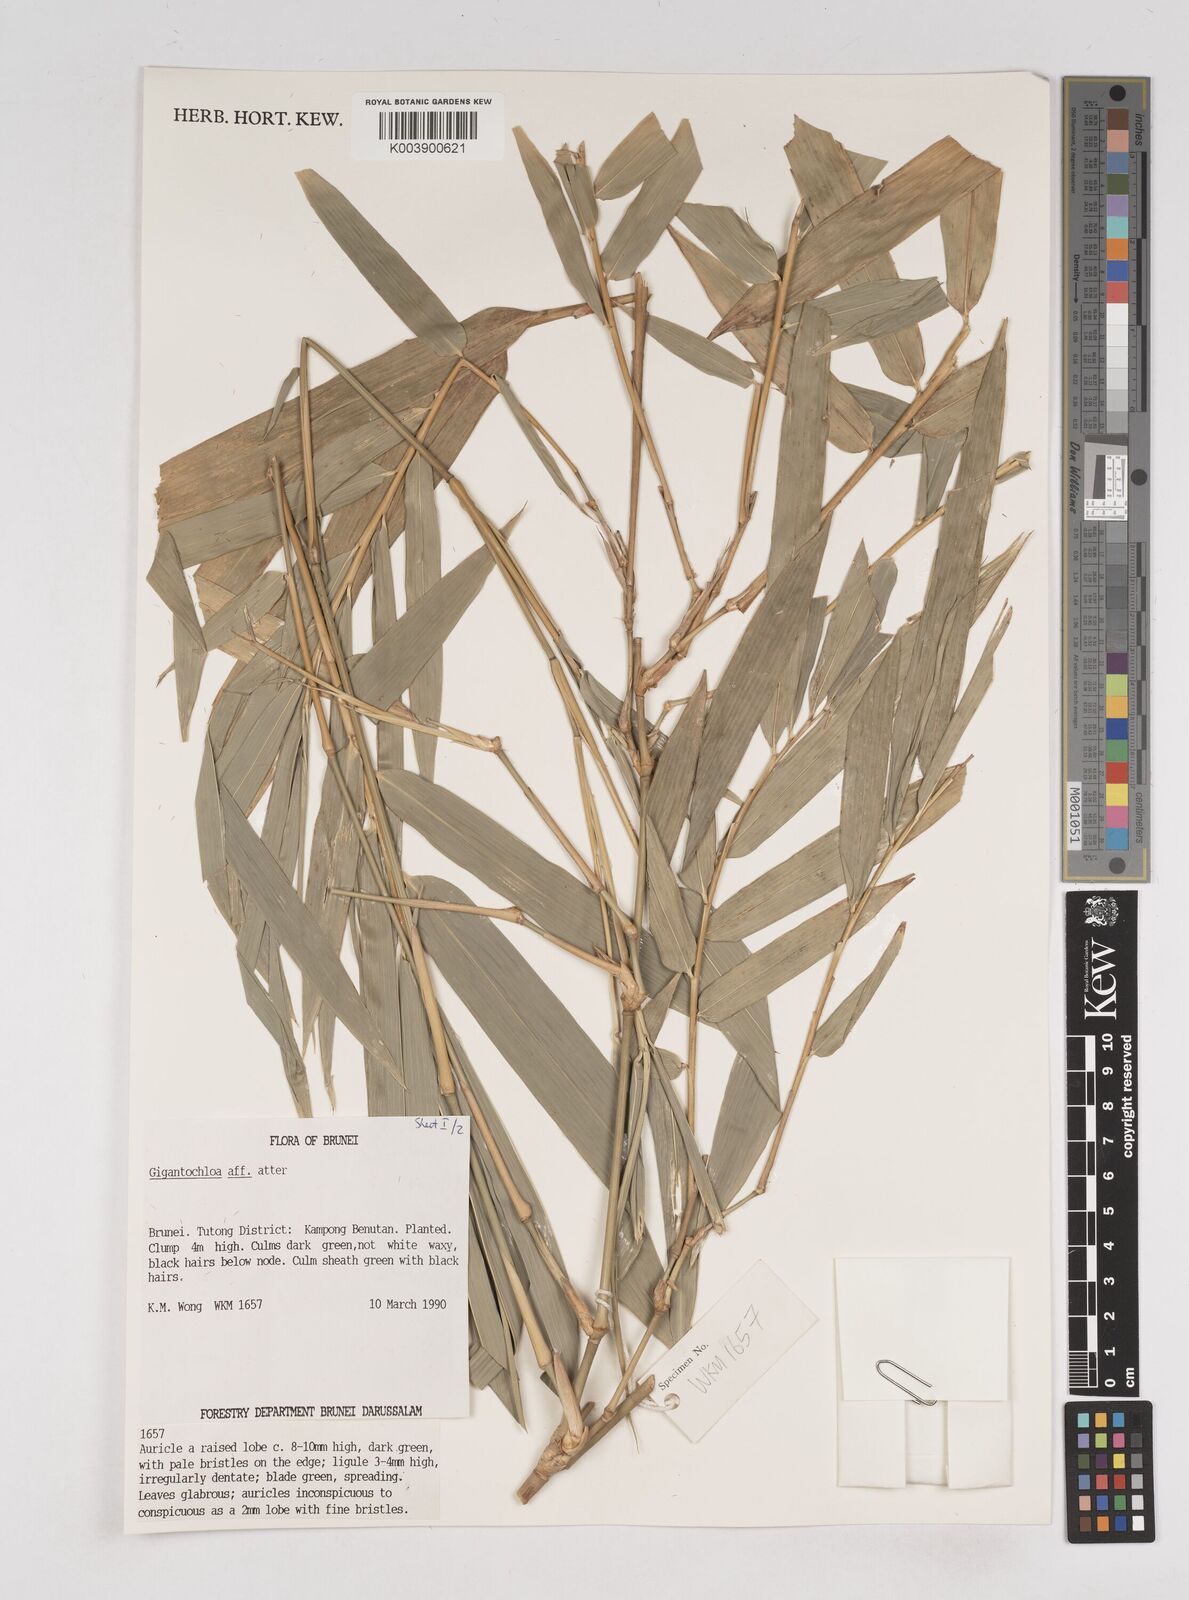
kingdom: Plantae
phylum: Tracheophyta
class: Liliopsida
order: Poales
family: Poaceae
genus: Gigantochloa
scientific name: Gigantochloa atter
